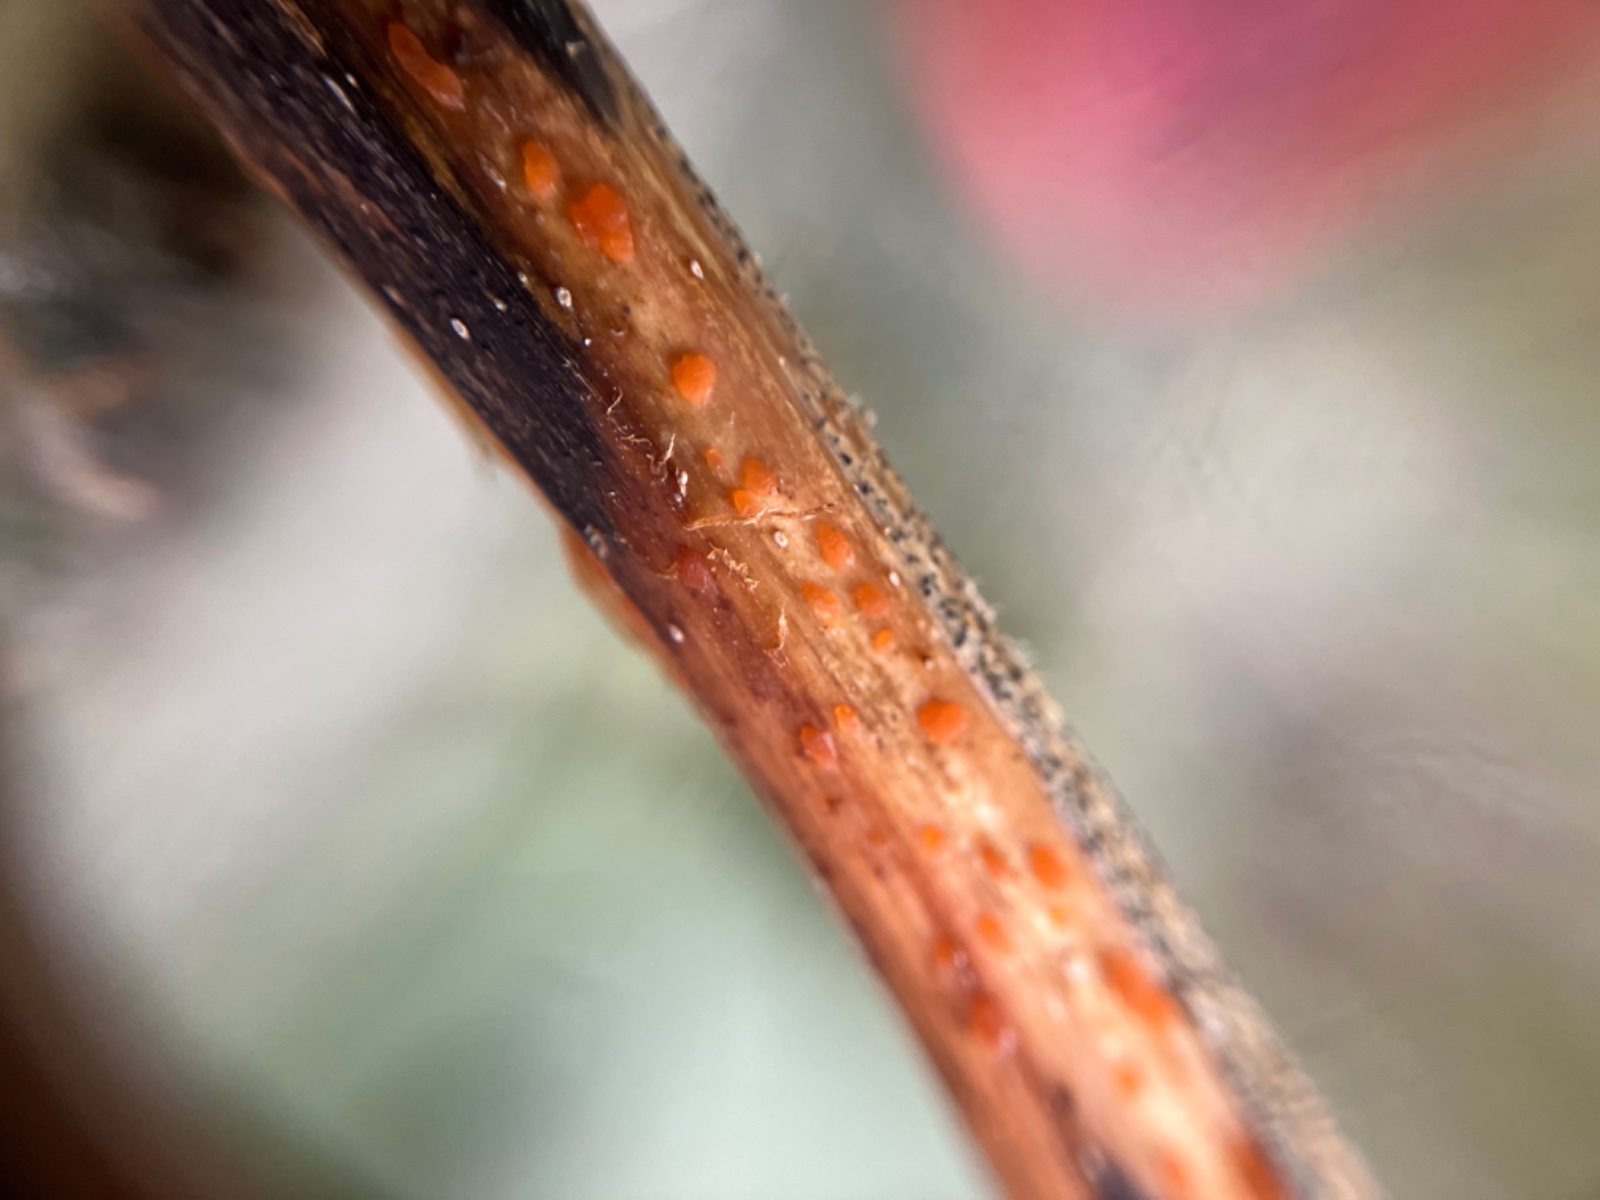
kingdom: Fungi
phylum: Ascomycota
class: Leotiomycetes
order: Helotiales
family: Calloriaceae
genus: Calloria
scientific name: Calloria urticae
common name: nælde-orangeskive
